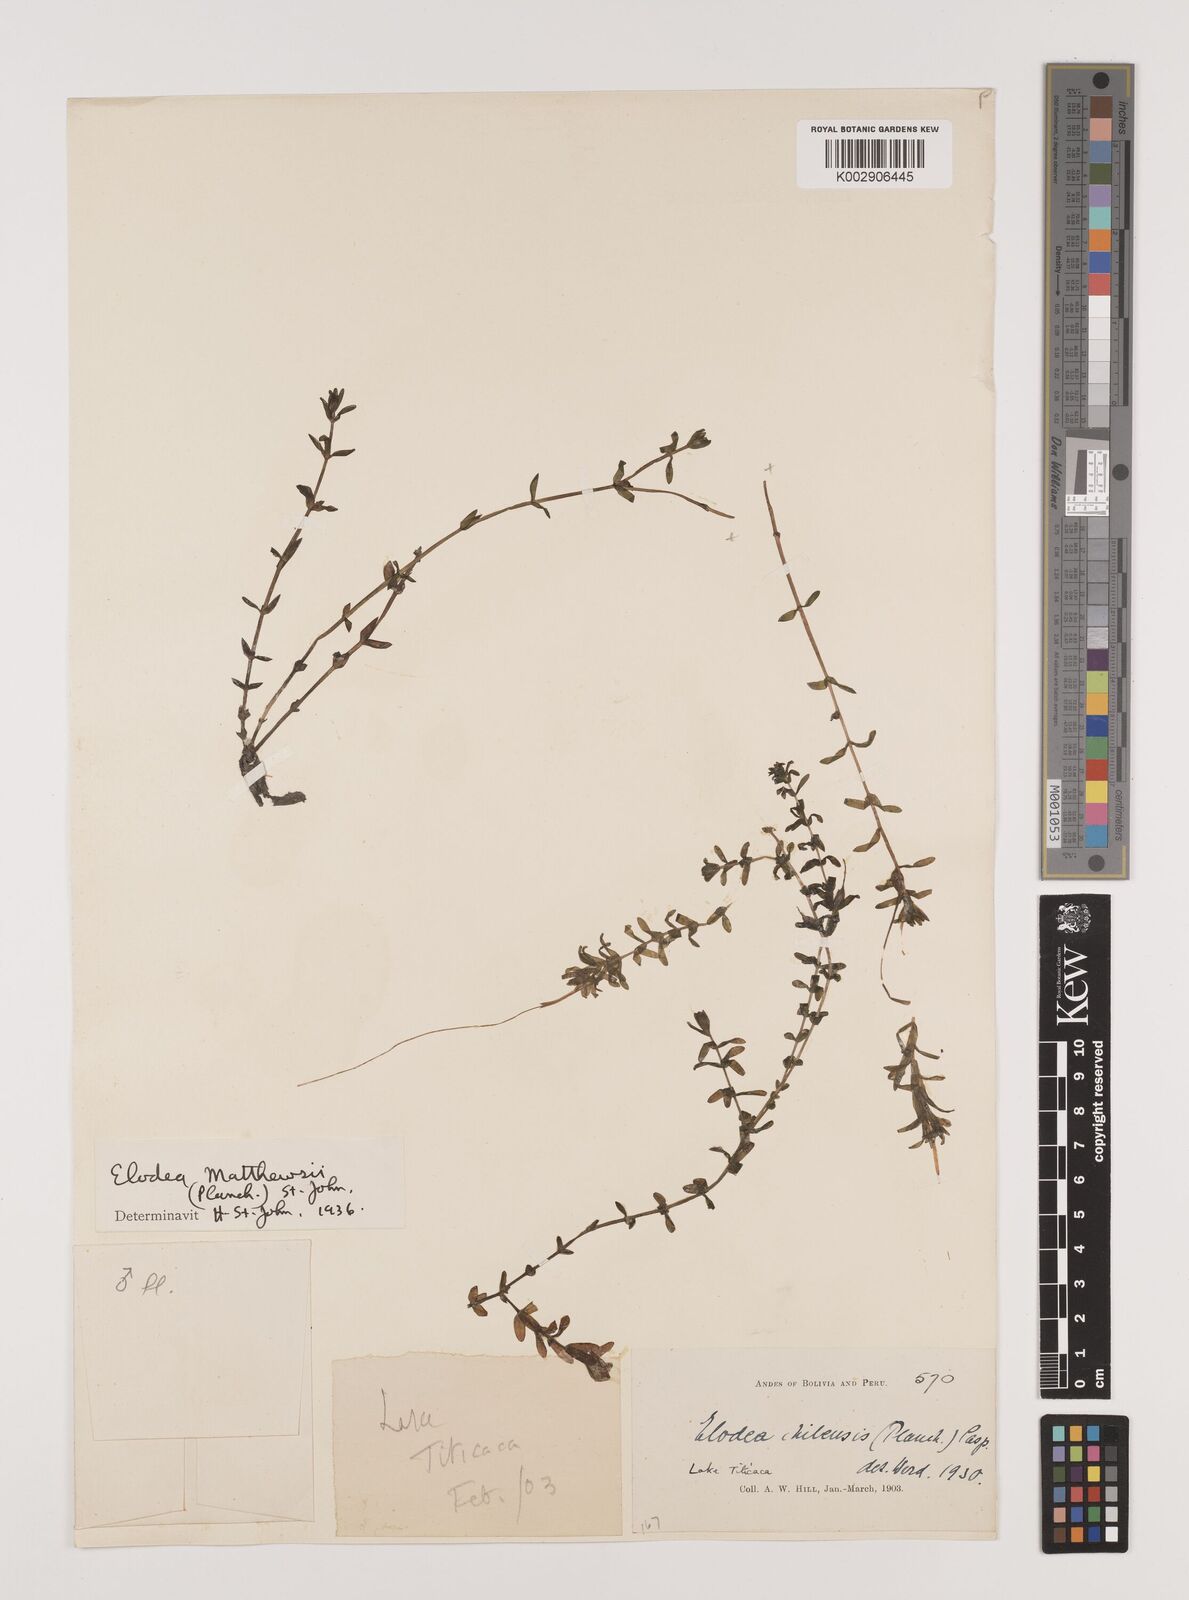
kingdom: Plantae
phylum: Tracheophyta
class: Liliopsida
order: Alismatales
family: Hydrocharitaceae
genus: Elodea
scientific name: Elodea potamogeton
